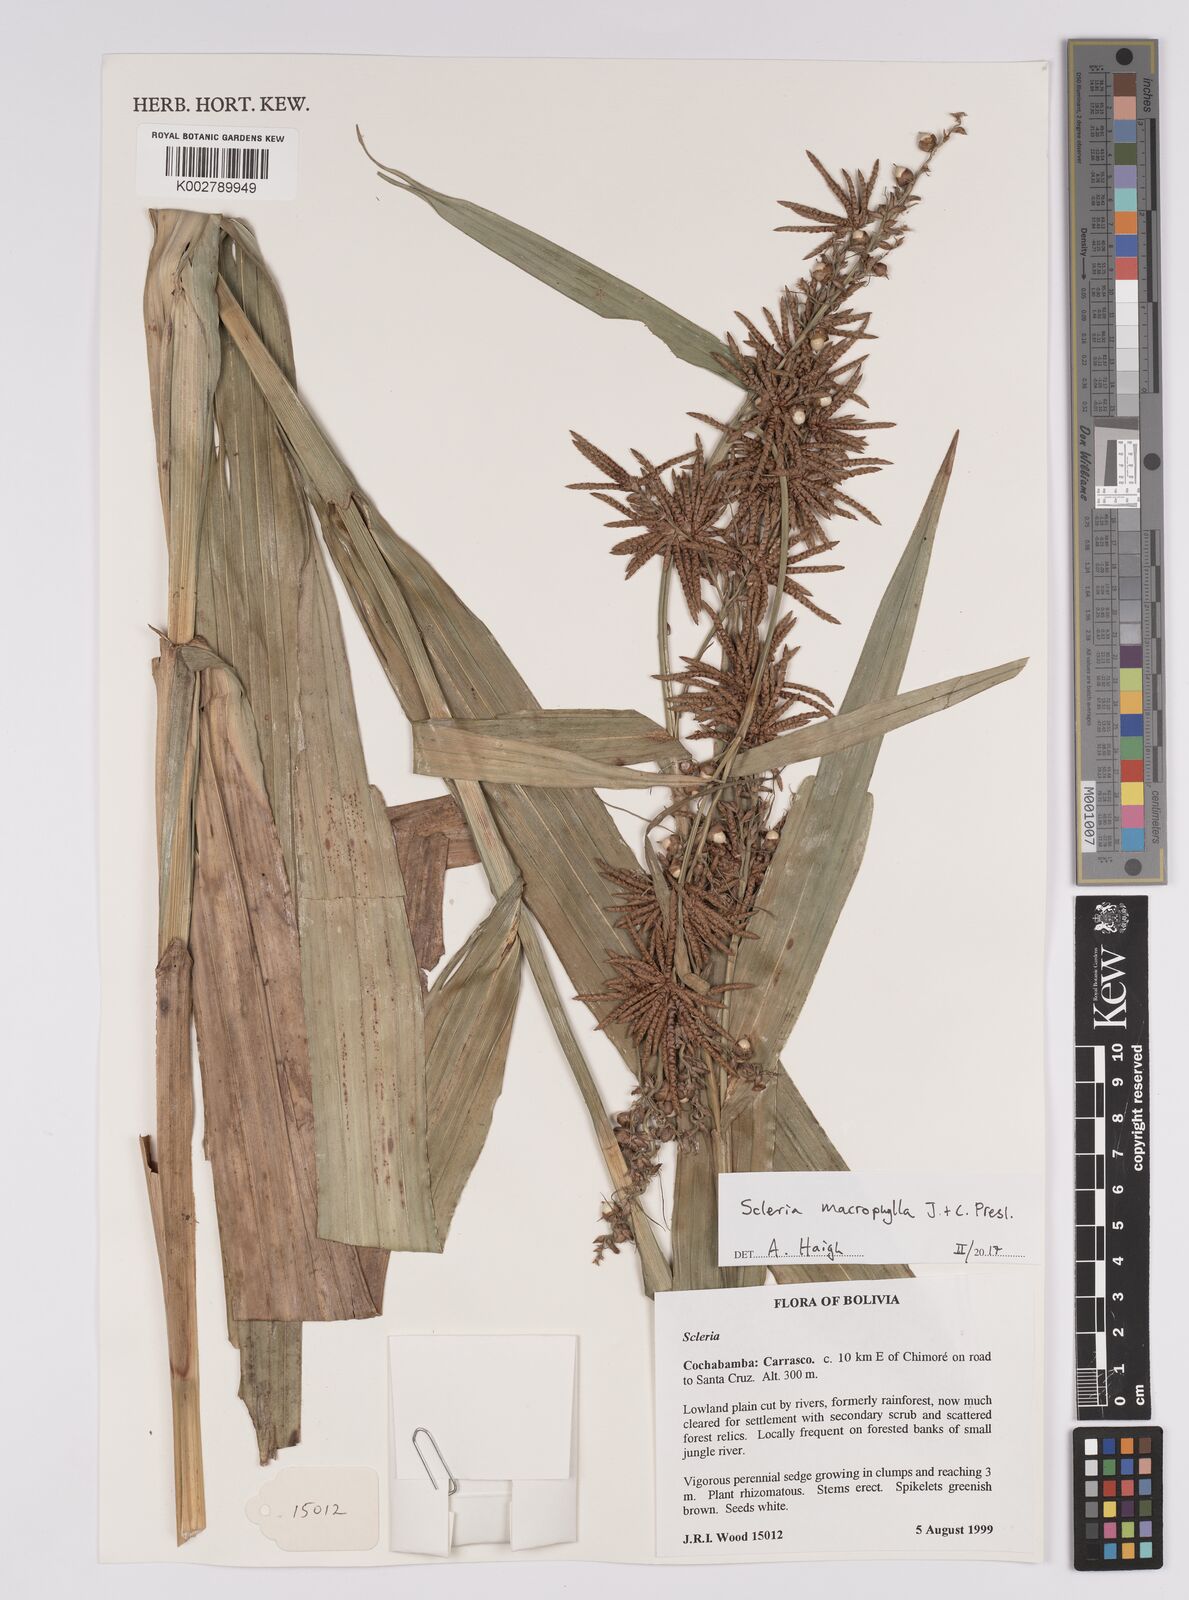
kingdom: Plantae
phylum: Tracheophyta
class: Liliopsida
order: Poales
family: Cyperaceae
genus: Scleria
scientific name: Scleria macrophylla
